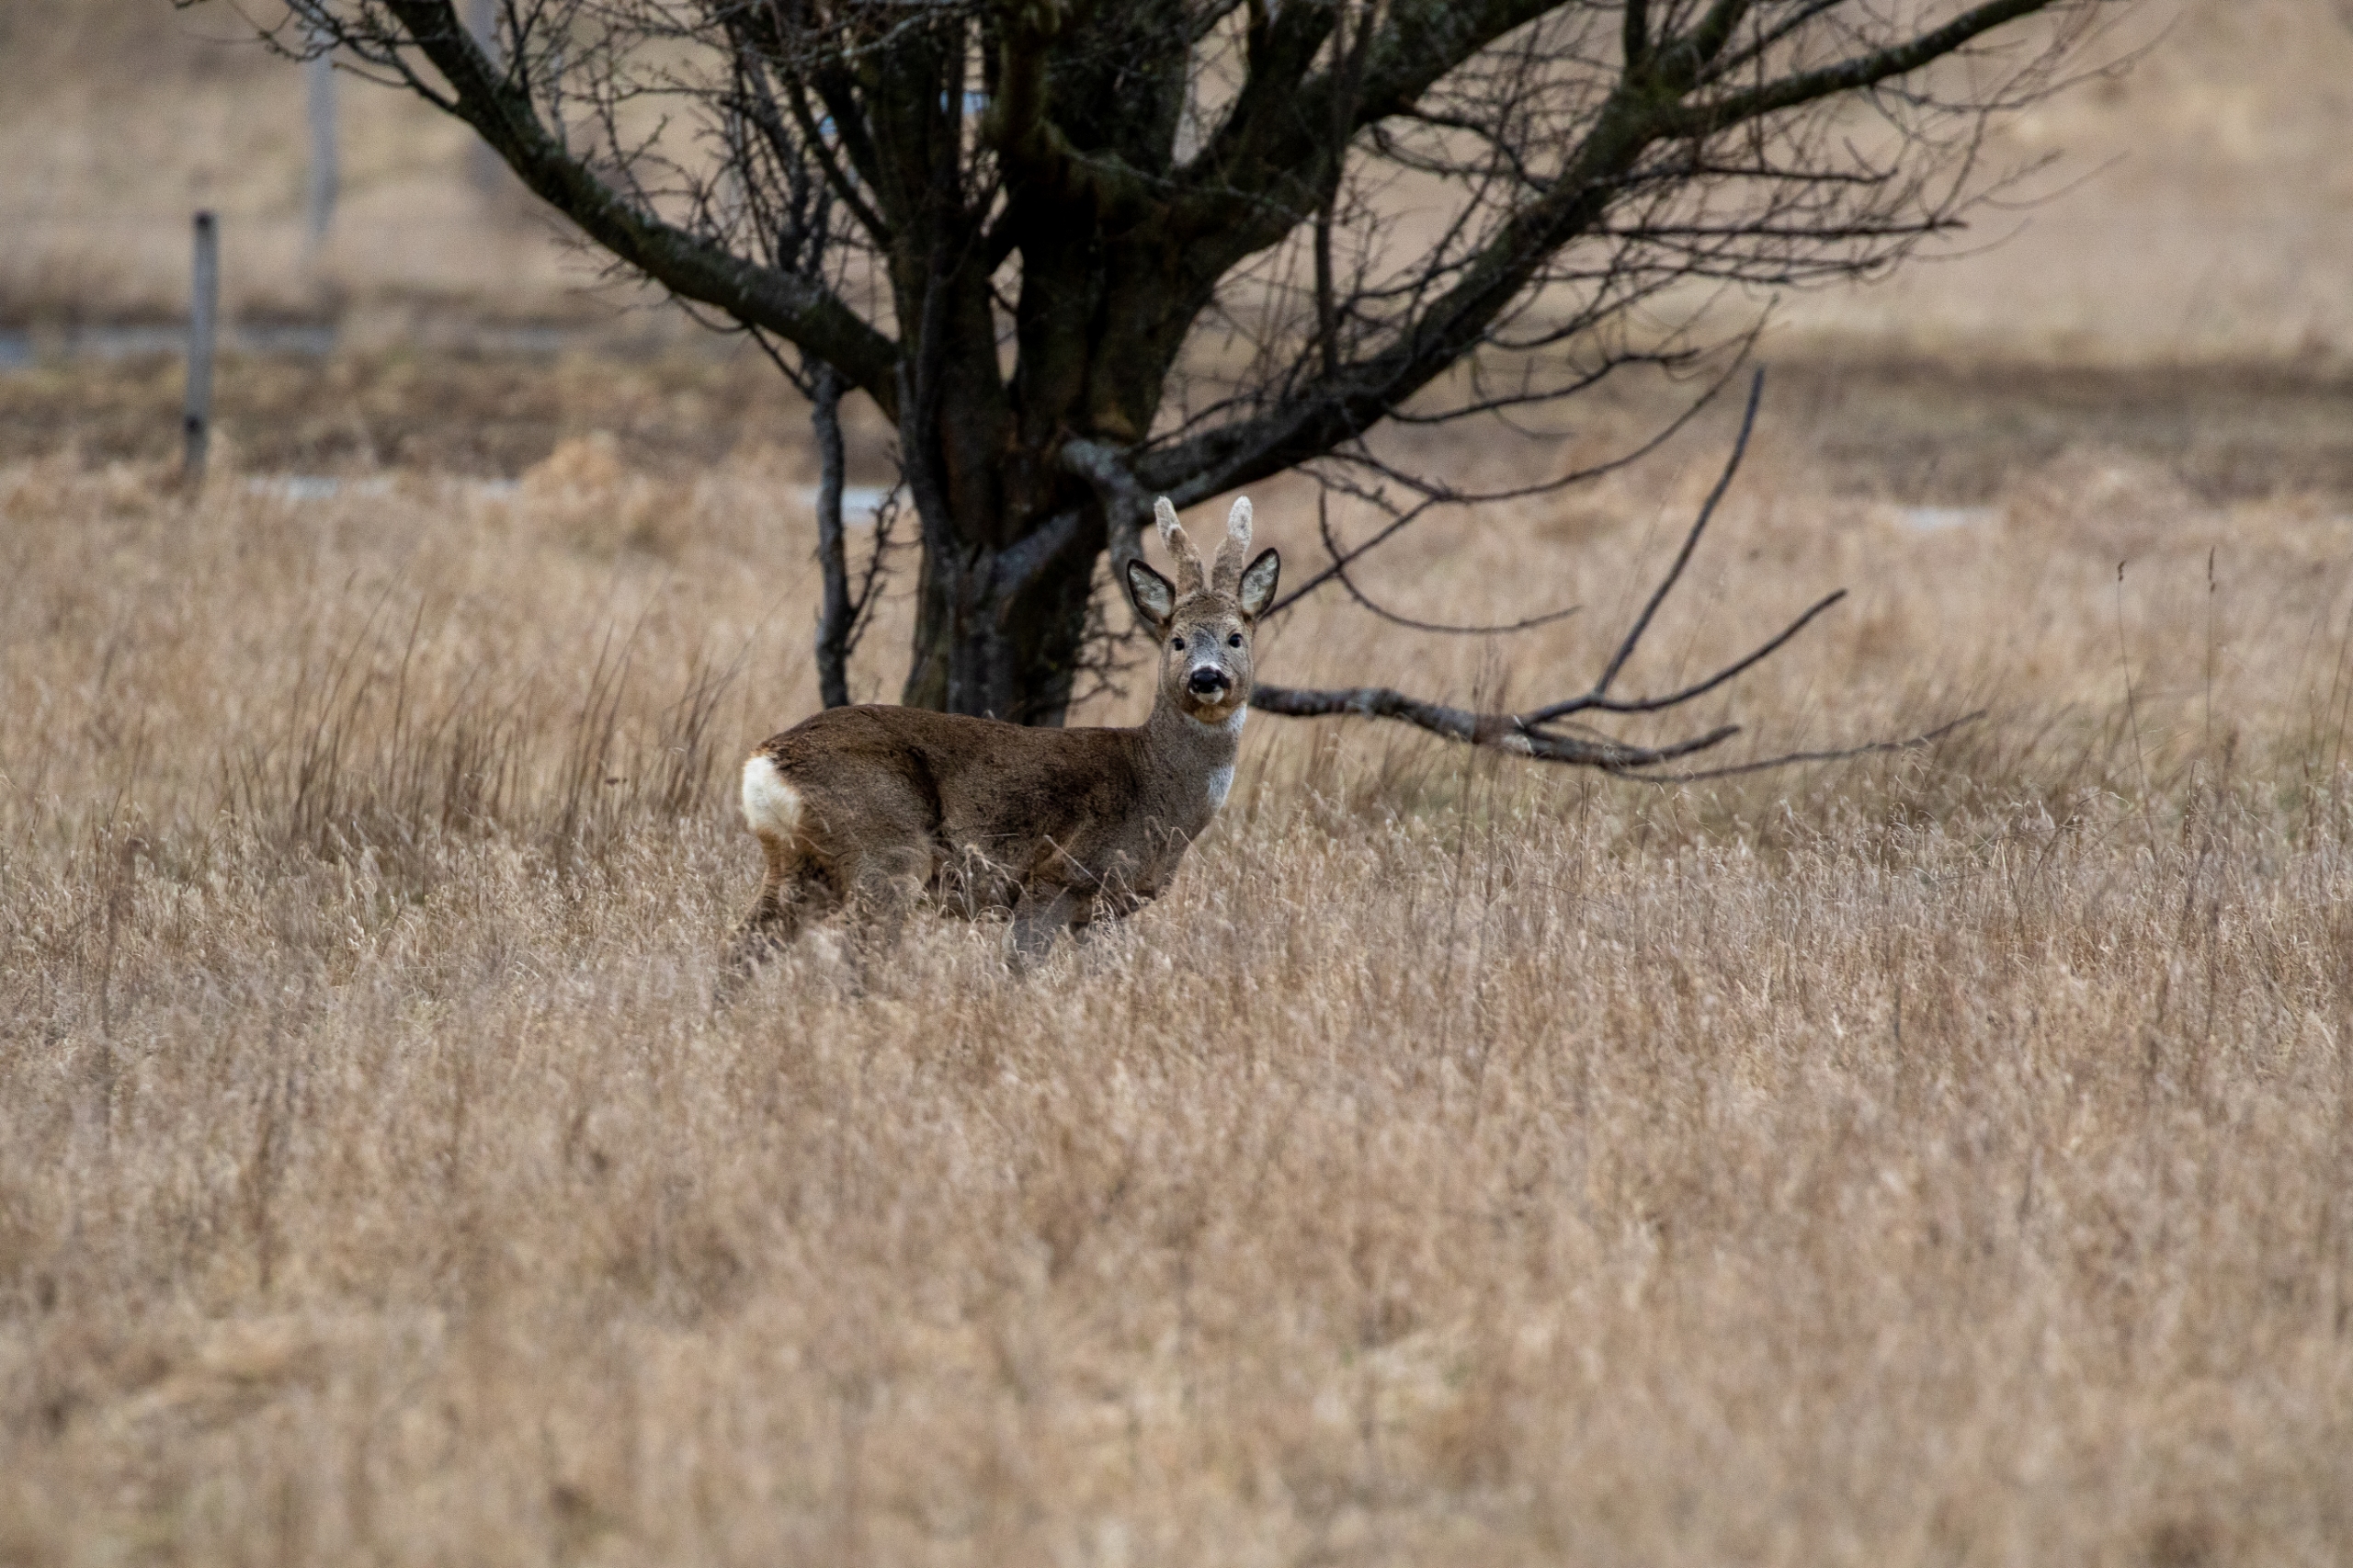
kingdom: Animalia
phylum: Chordata
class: Mammalia
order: Artiodactyla
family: Cervidae
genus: Capreolus
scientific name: Capreolus capreolus
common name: Rådyr
